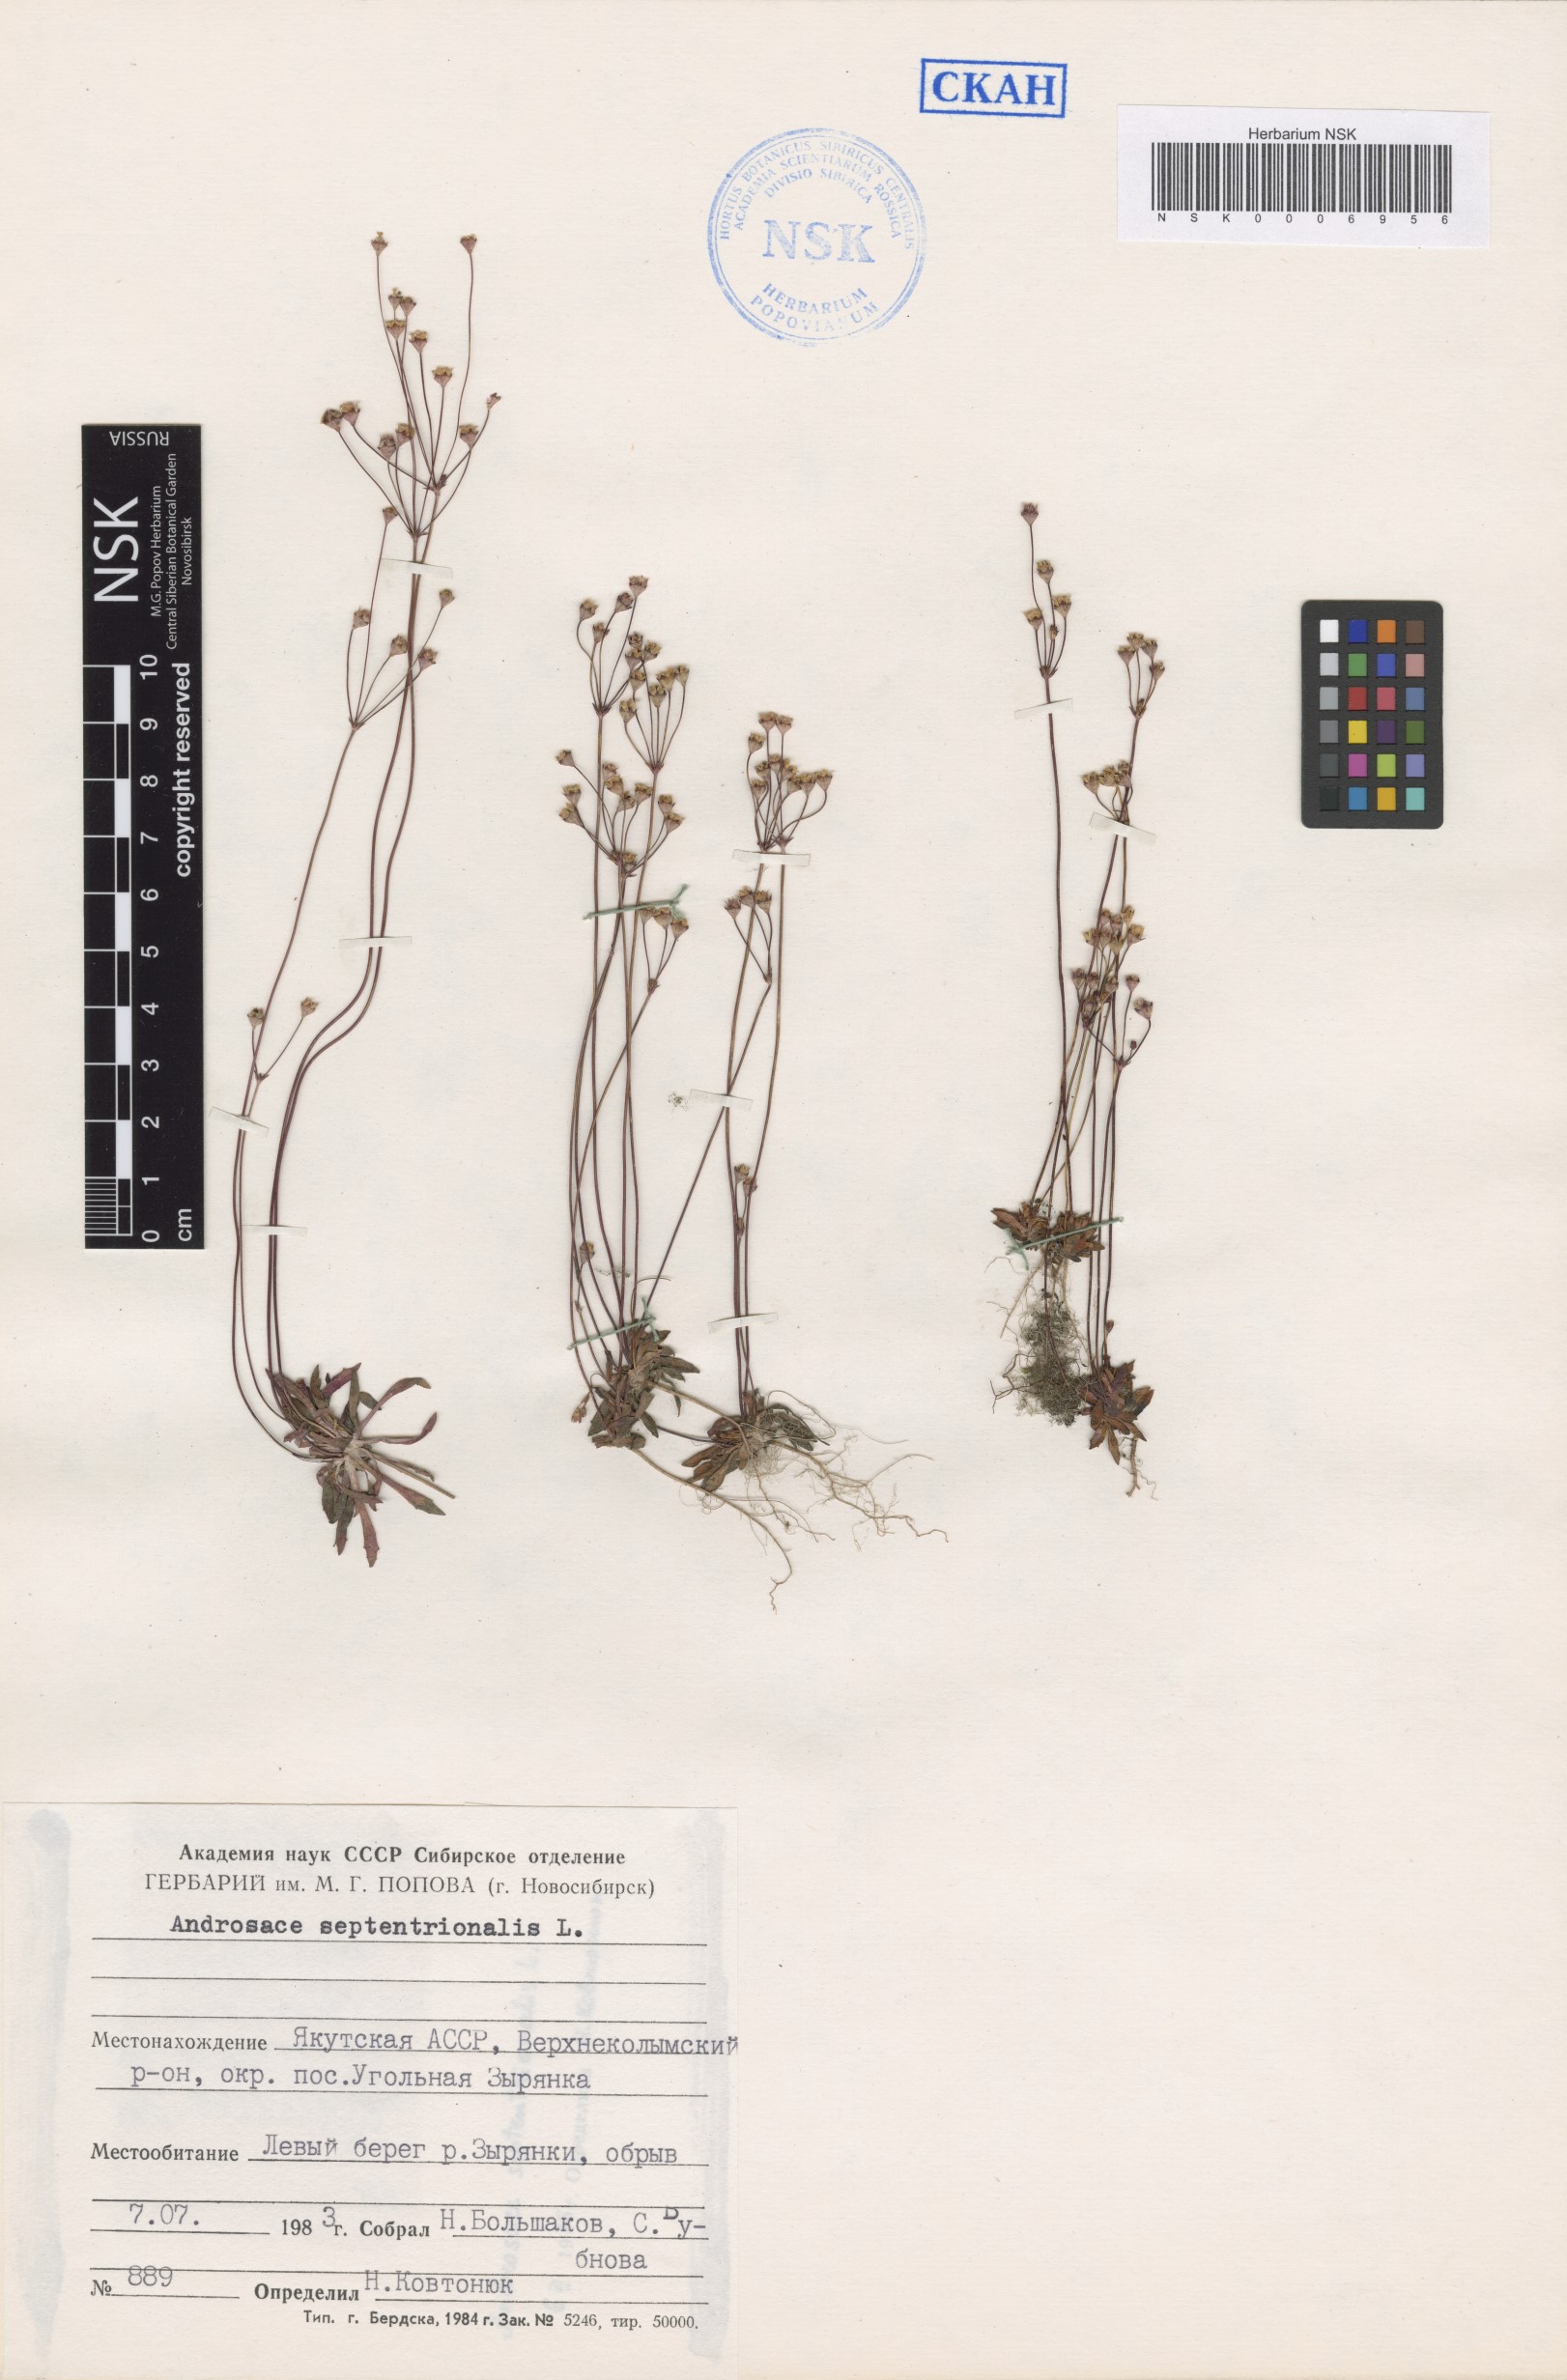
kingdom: Plantae
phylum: Tracheophyta
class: Magnoliopsida
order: Ericales
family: Primulaceae
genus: Androsace
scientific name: Androsace septentrionalis
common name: Hairy northern fairy-candelabra
